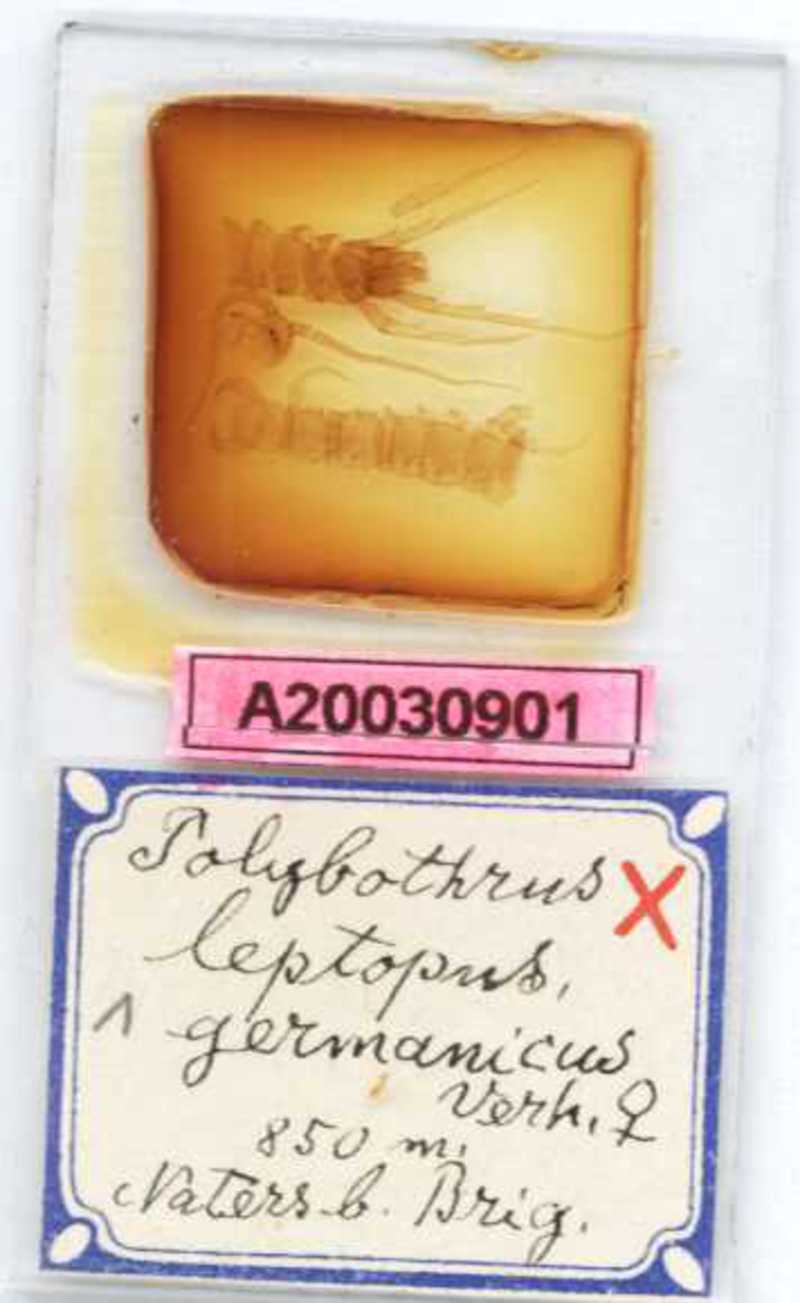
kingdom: Animalia
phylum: Arthropoda
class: Chilopoda
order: Lithobiomorpha
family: Lithobiidae
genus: Polybothrus
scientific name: Polybothrus leptopus
